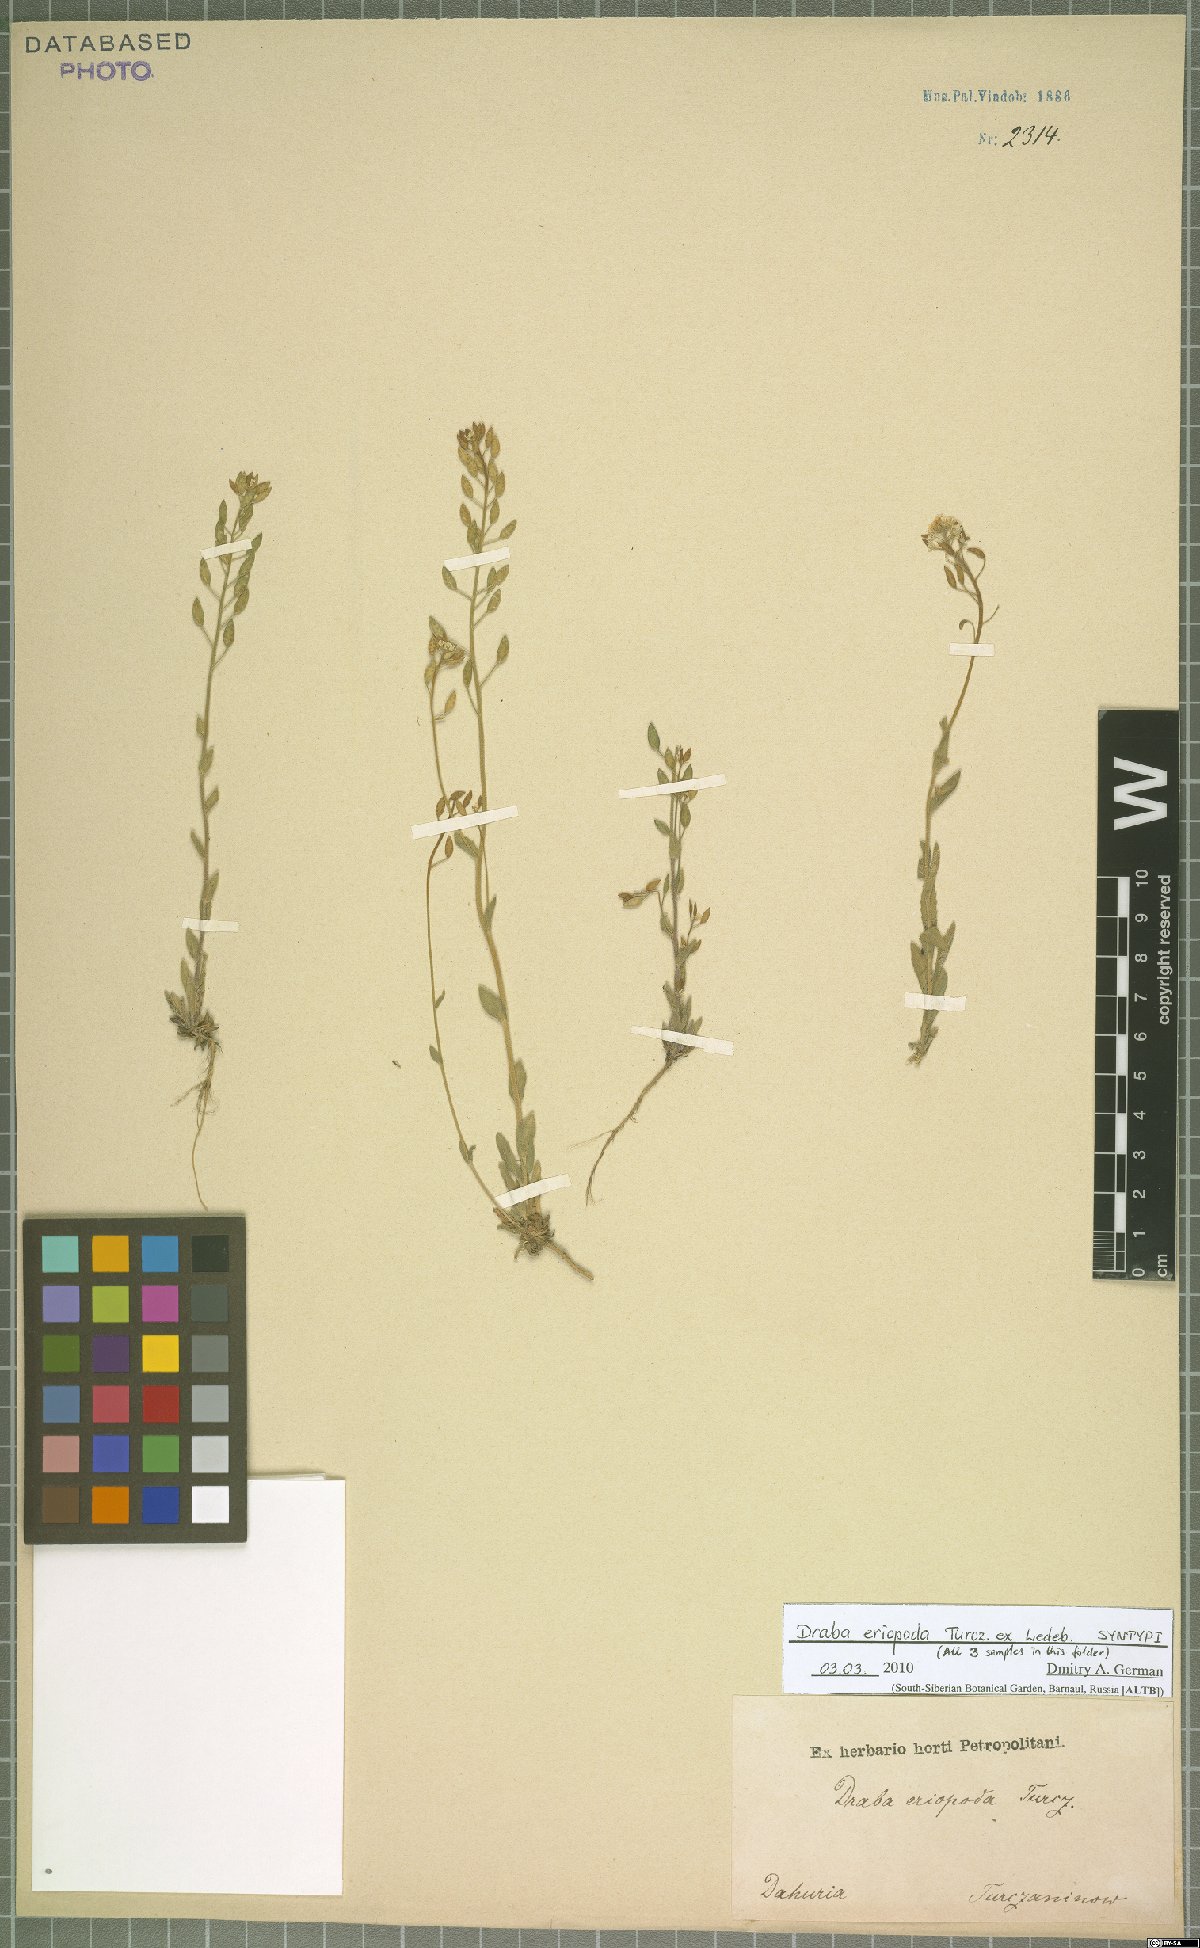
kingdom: Plantae
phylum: Tracheophyta
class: Magnoliopsida
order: Brassicales
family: Brassicaceae
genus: Draba
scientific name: Draba eriopoda
